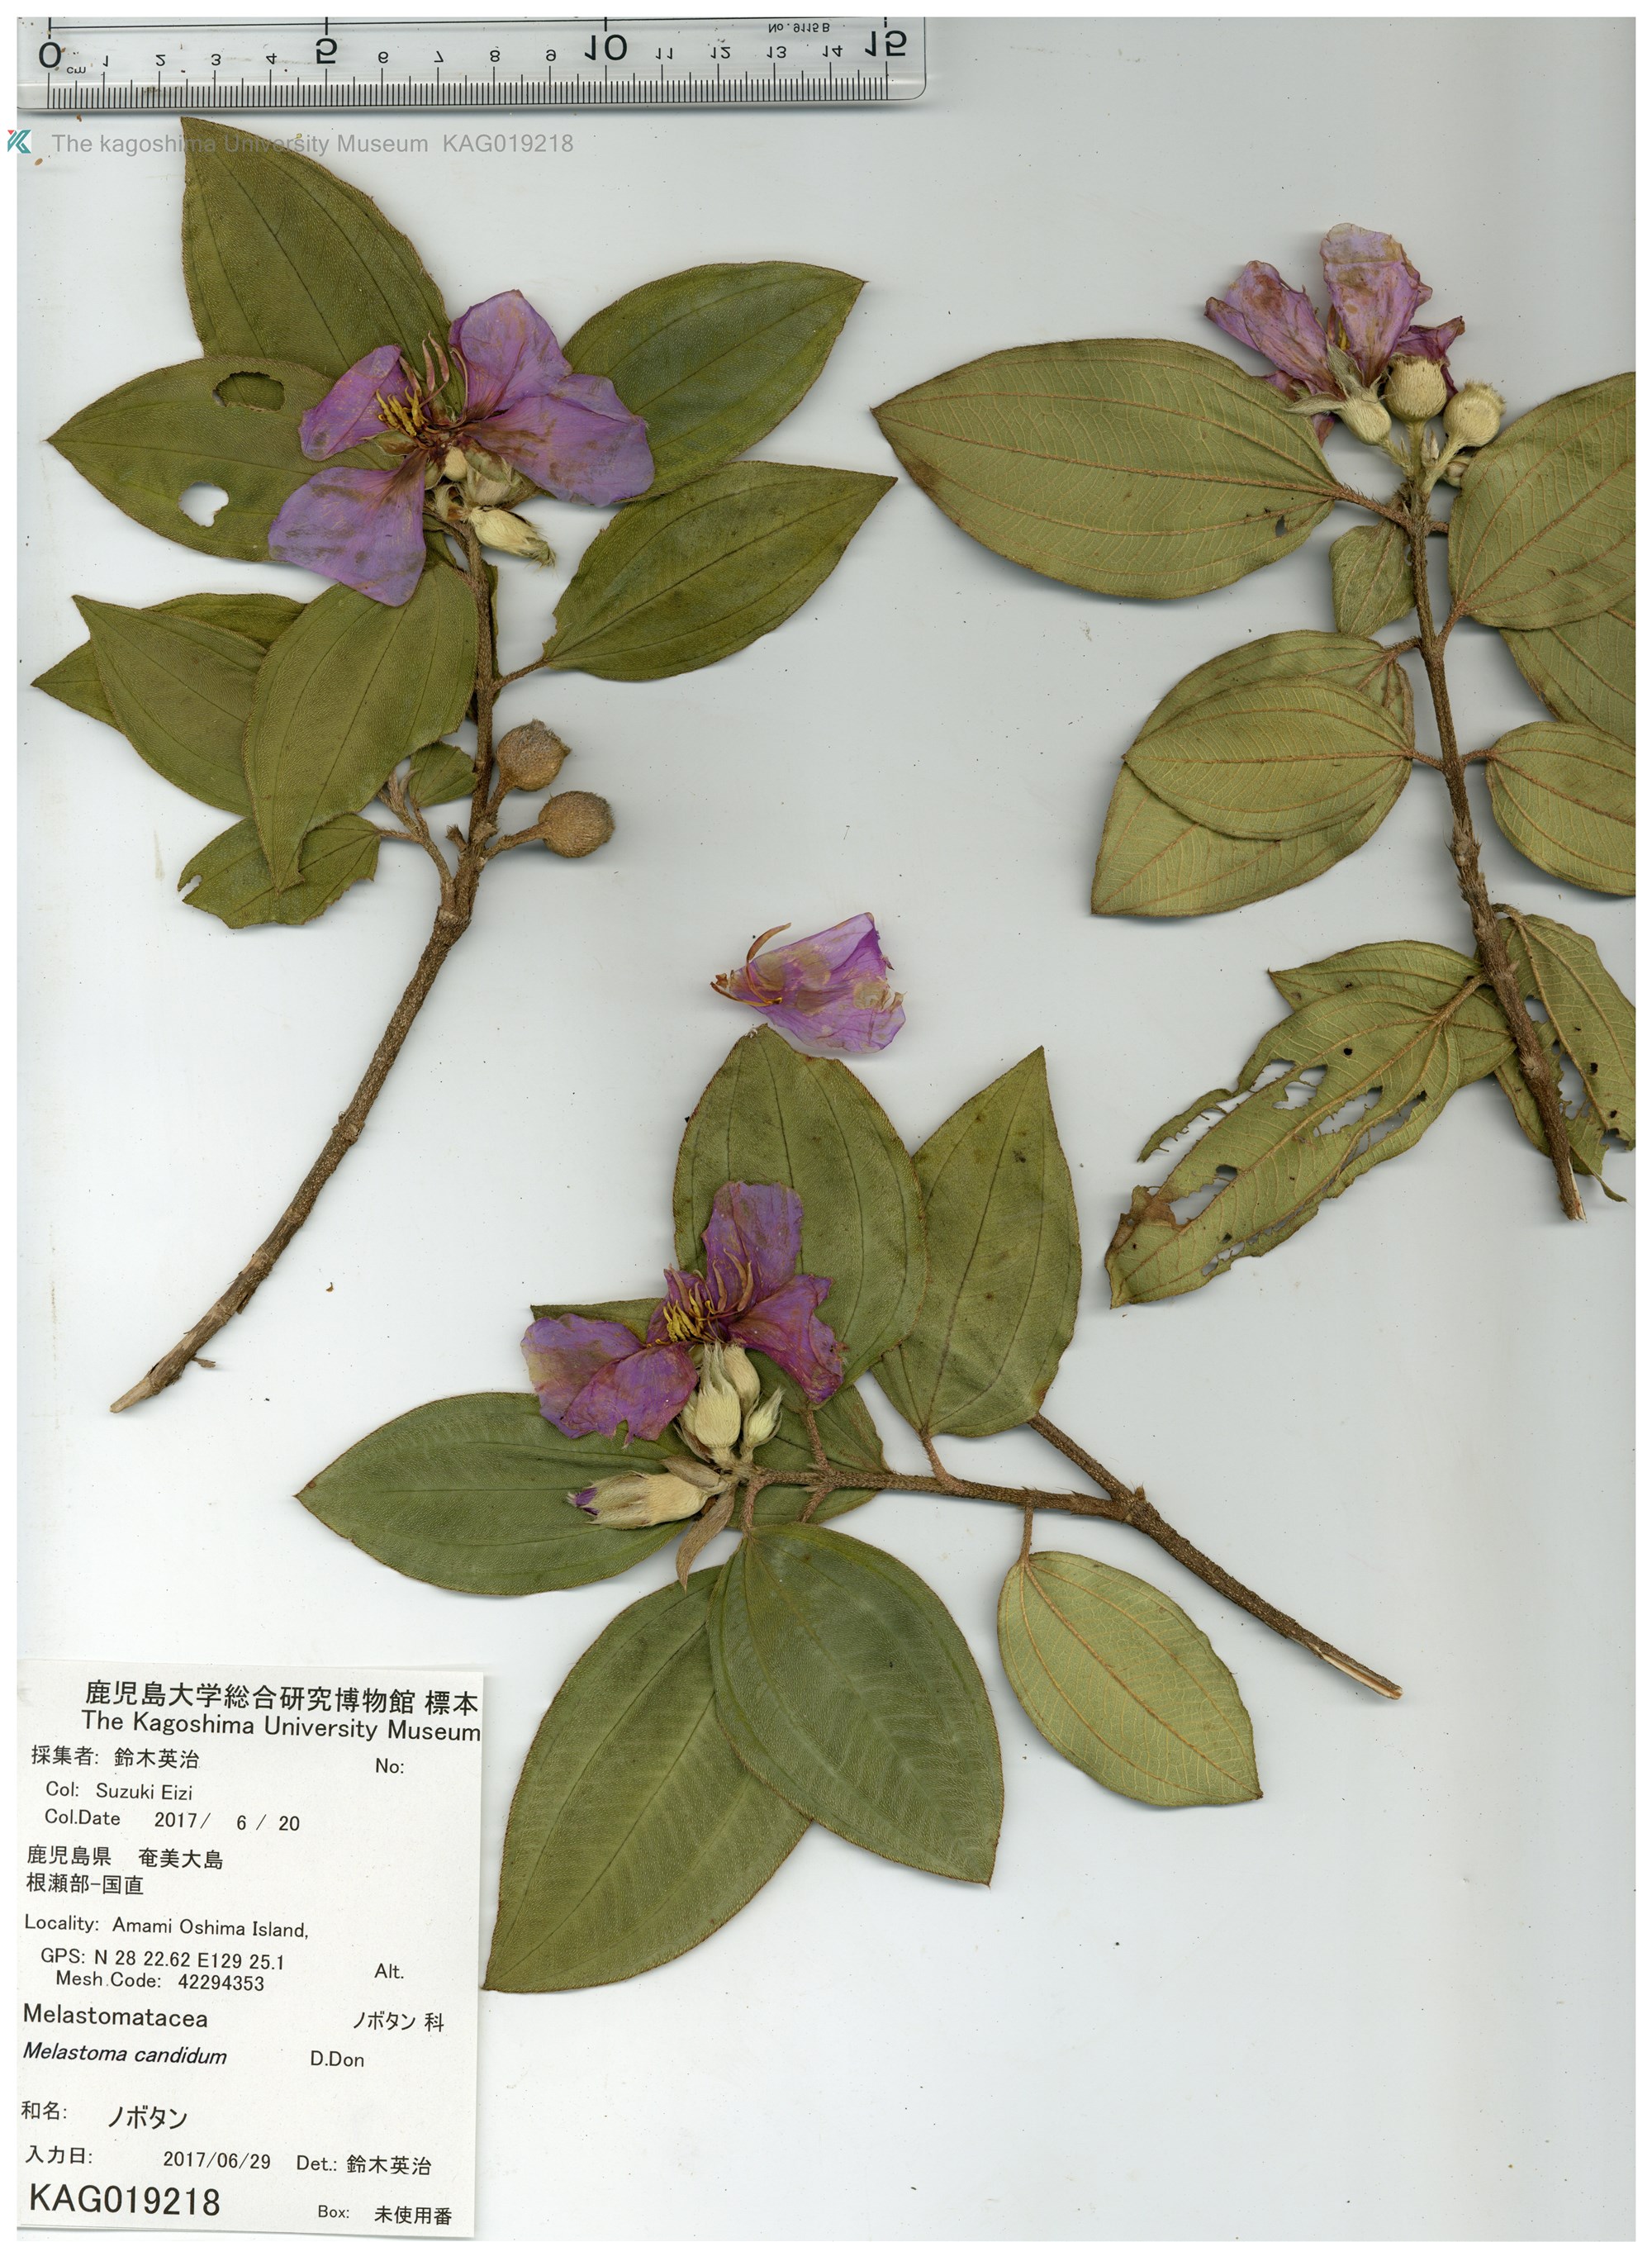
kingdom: Plantae
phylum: Tracheophyta
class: Magnoliopsida
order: Myrtales
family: Melastomataceae
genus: Melastoma
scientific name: Melastoma malabathricum
